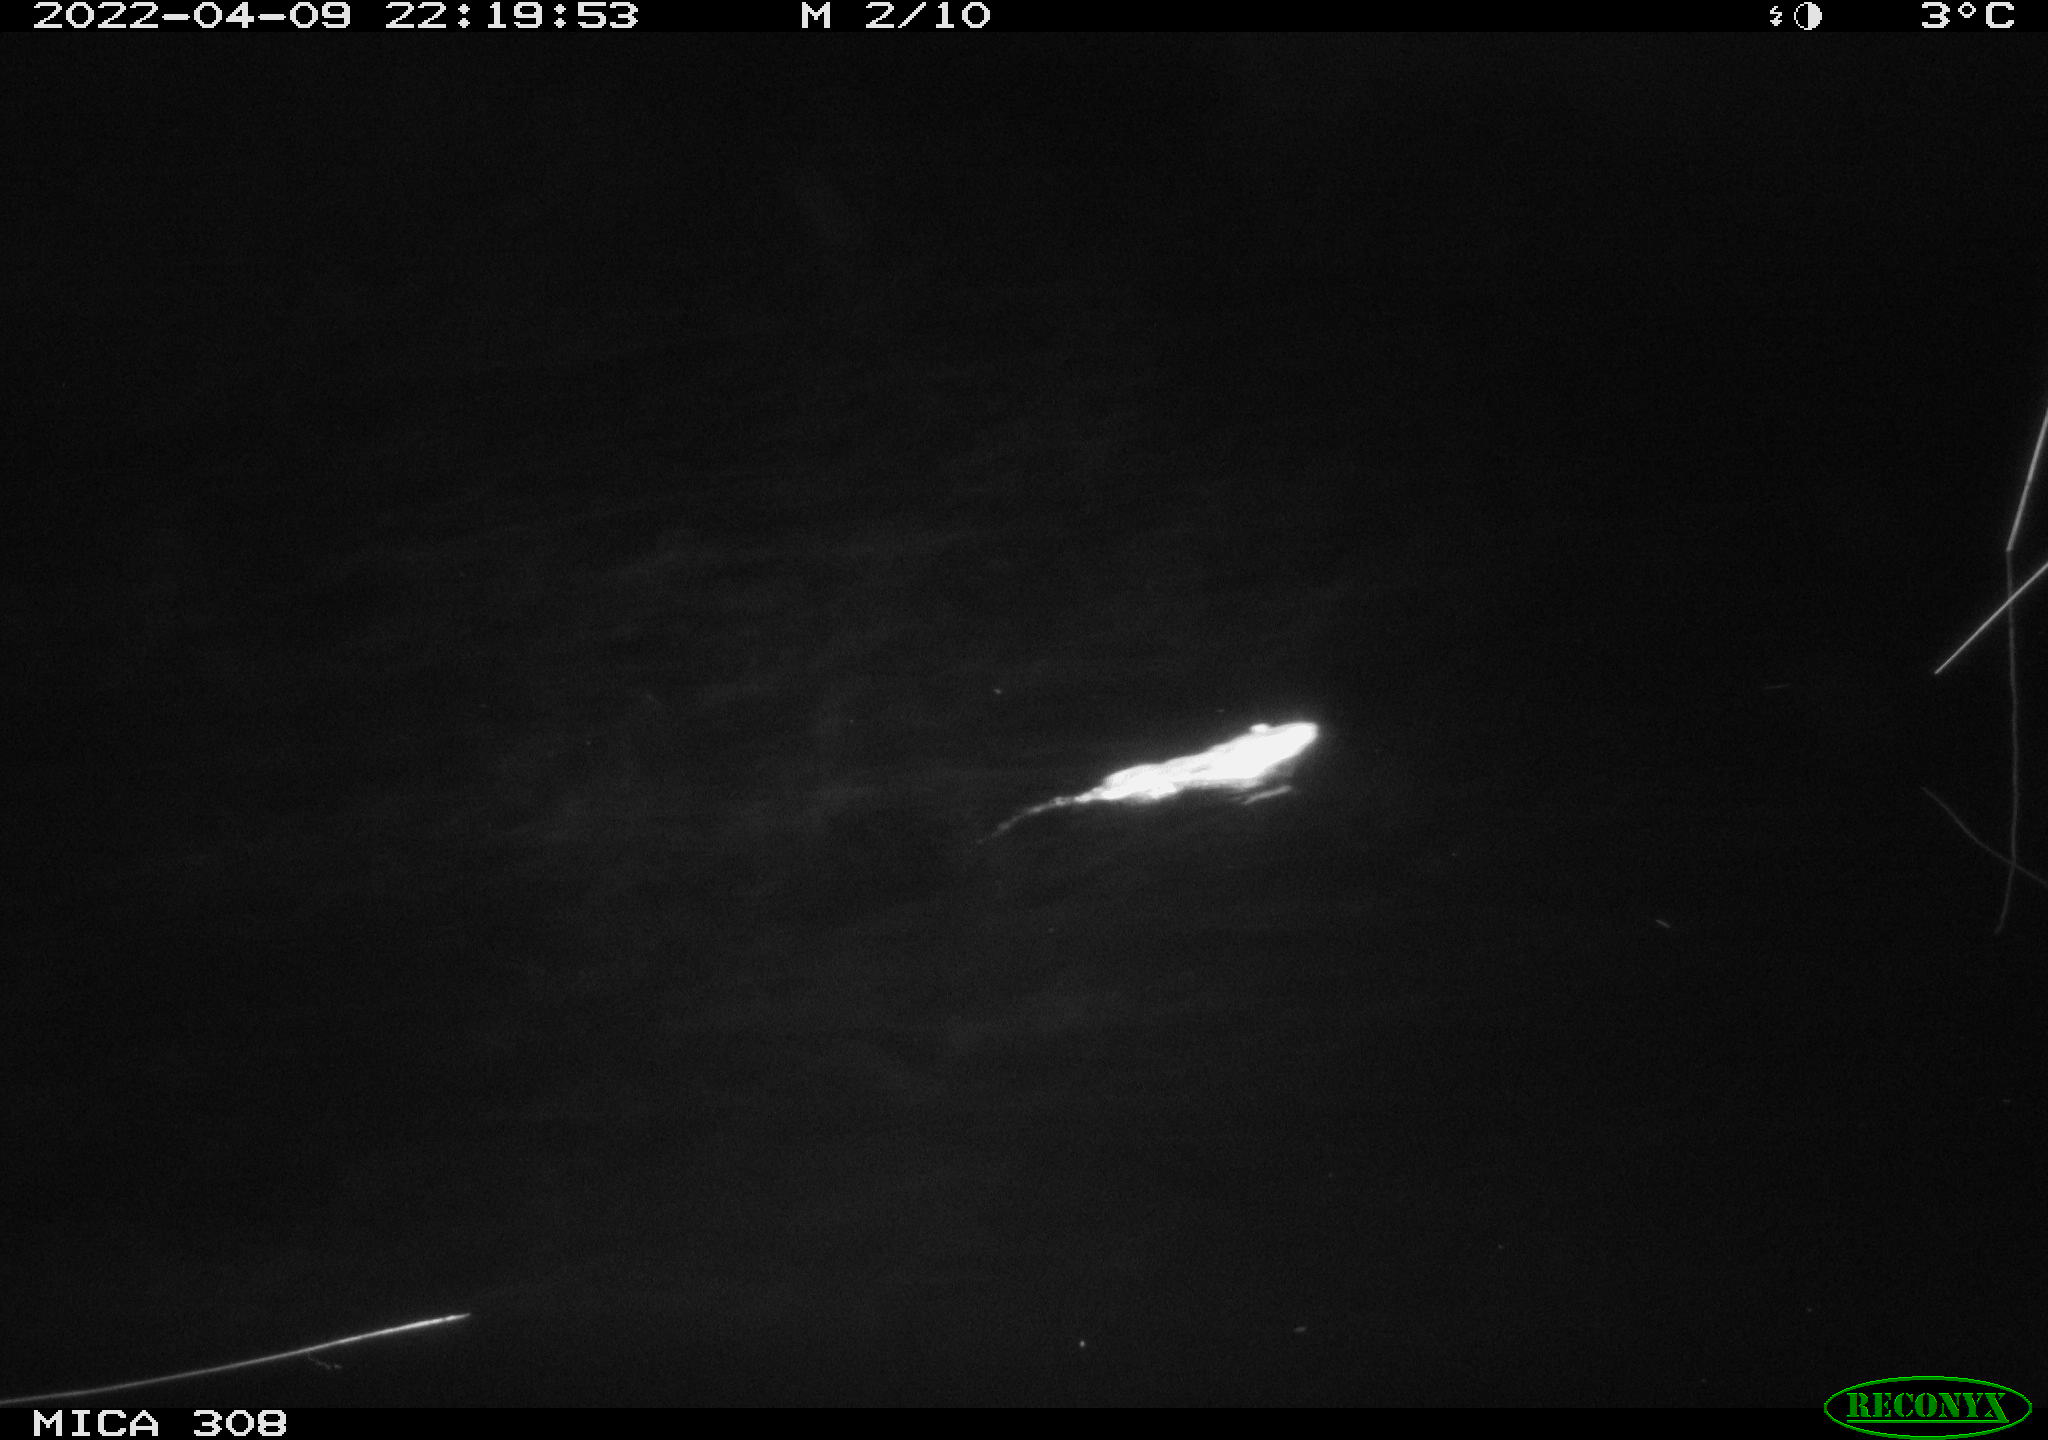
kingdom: Animalia
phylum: Chordata
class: Mammalia
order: Rodentia
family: Cricetidae
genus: Ondatra
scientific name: Ondatra zibethicus
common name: Muskrat
